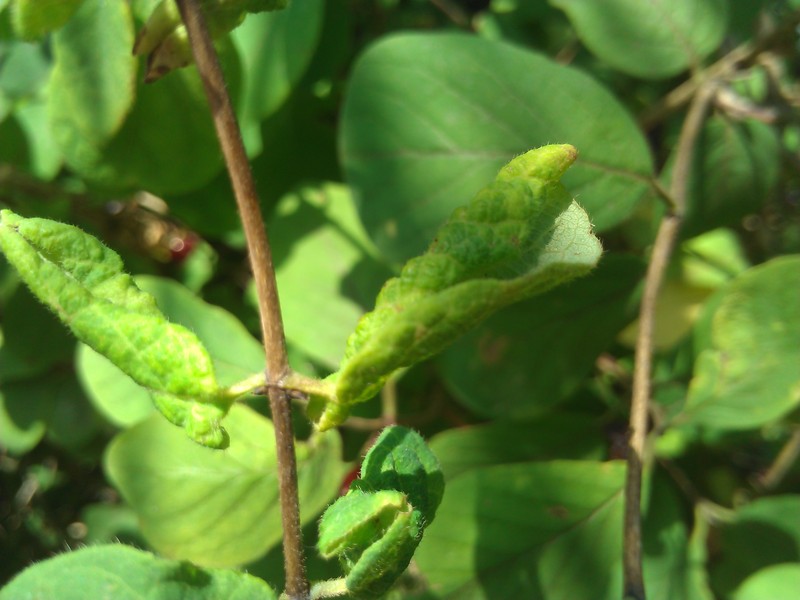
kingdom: Animalia
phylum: Arthropoda
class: Arachnida
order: Trombidiformes
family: Eriophyidae
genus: Aculus
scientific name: Aculus xylostei
